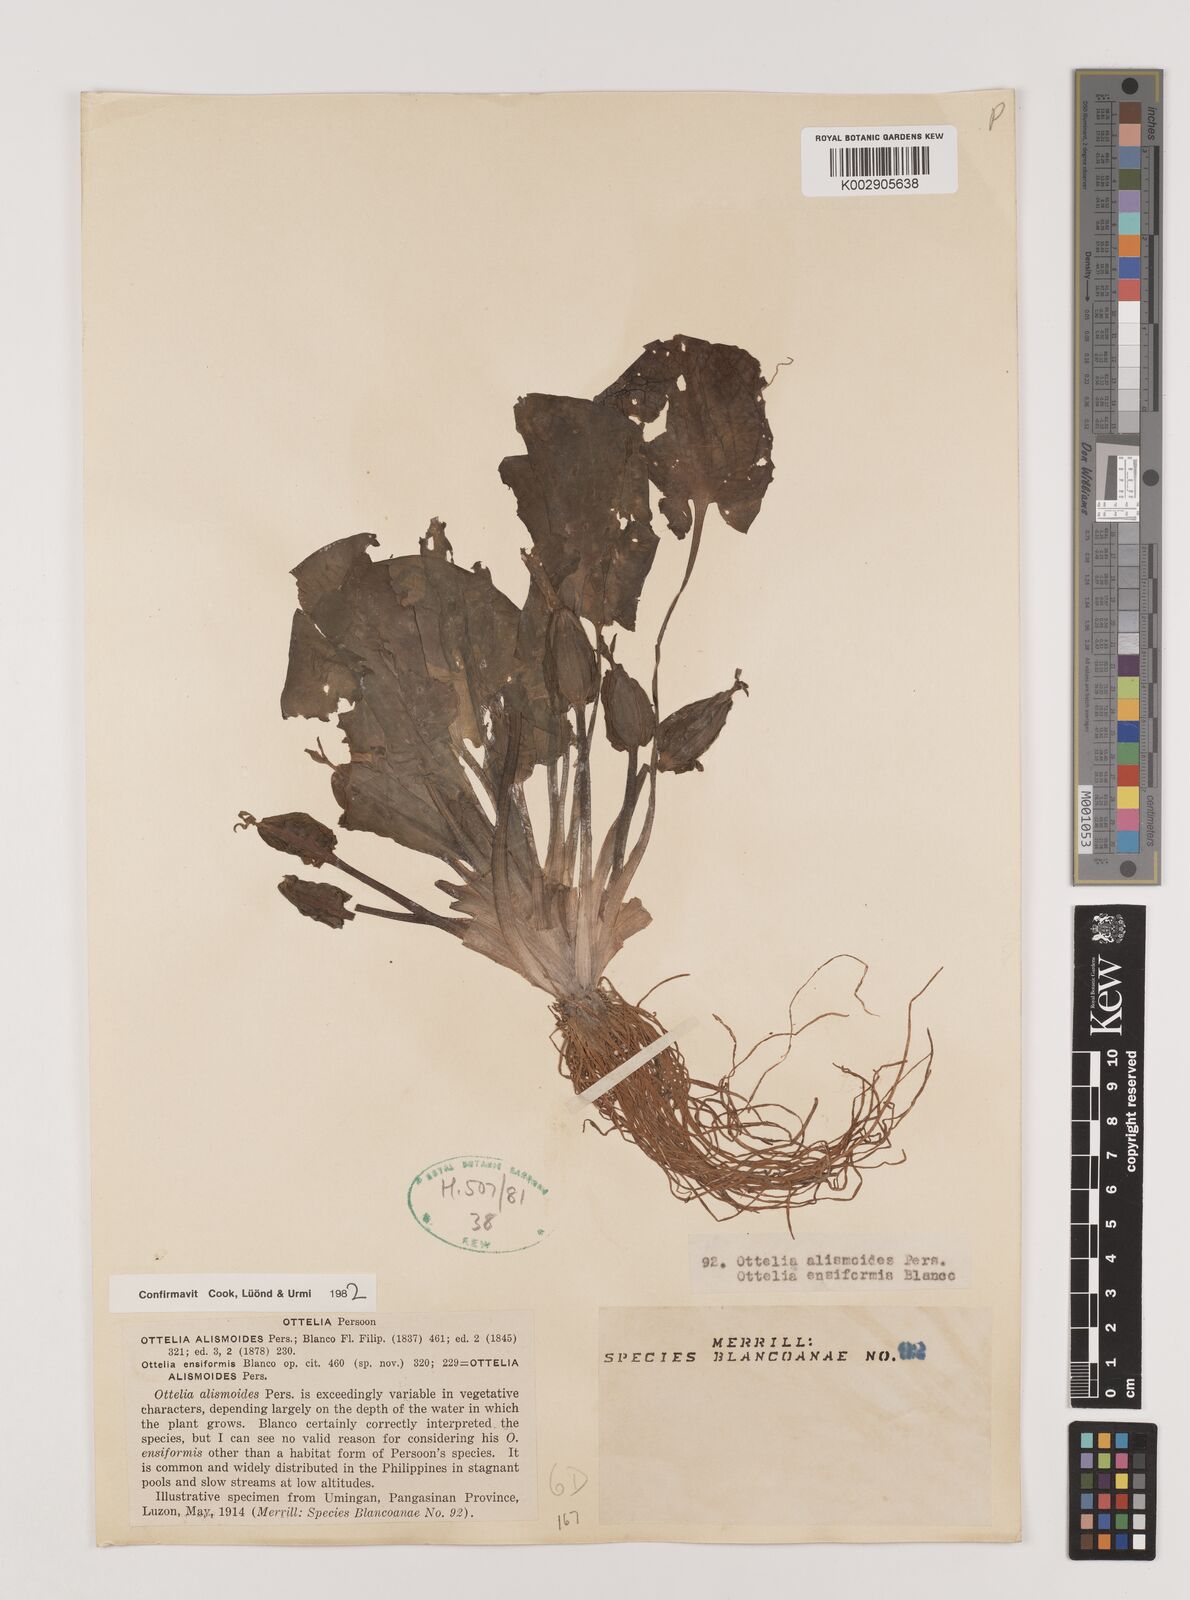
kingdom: Plantae
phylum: Tracheophyta
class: Liliopsida
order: Alismatales
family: Hydrocharitaceae
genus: Ottelia
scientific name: Ottelia alismoides
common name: Duck-lettuce
